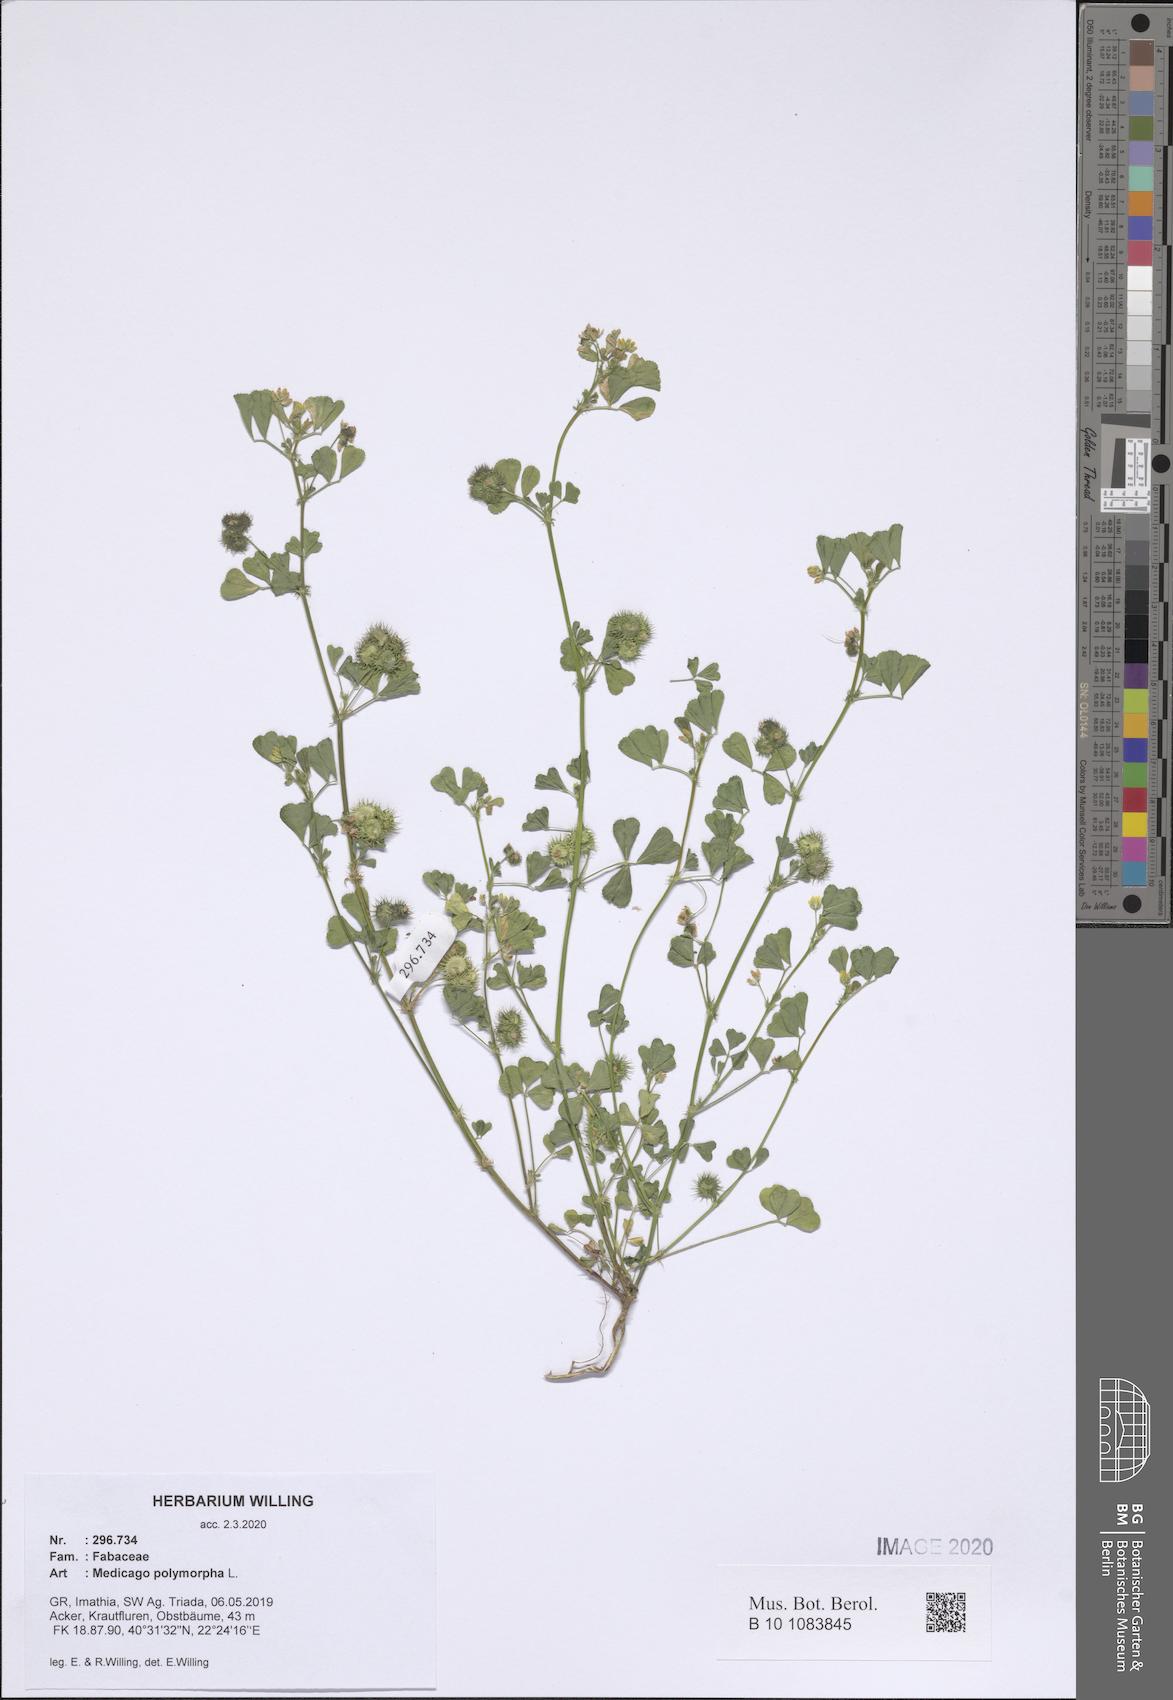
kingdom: Plantae
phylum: Tracheophyta
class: Magnoliopsida
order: Fabales
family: Fabaceae
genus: Medicago
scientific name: Medicago polymorpha
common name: Burclover
